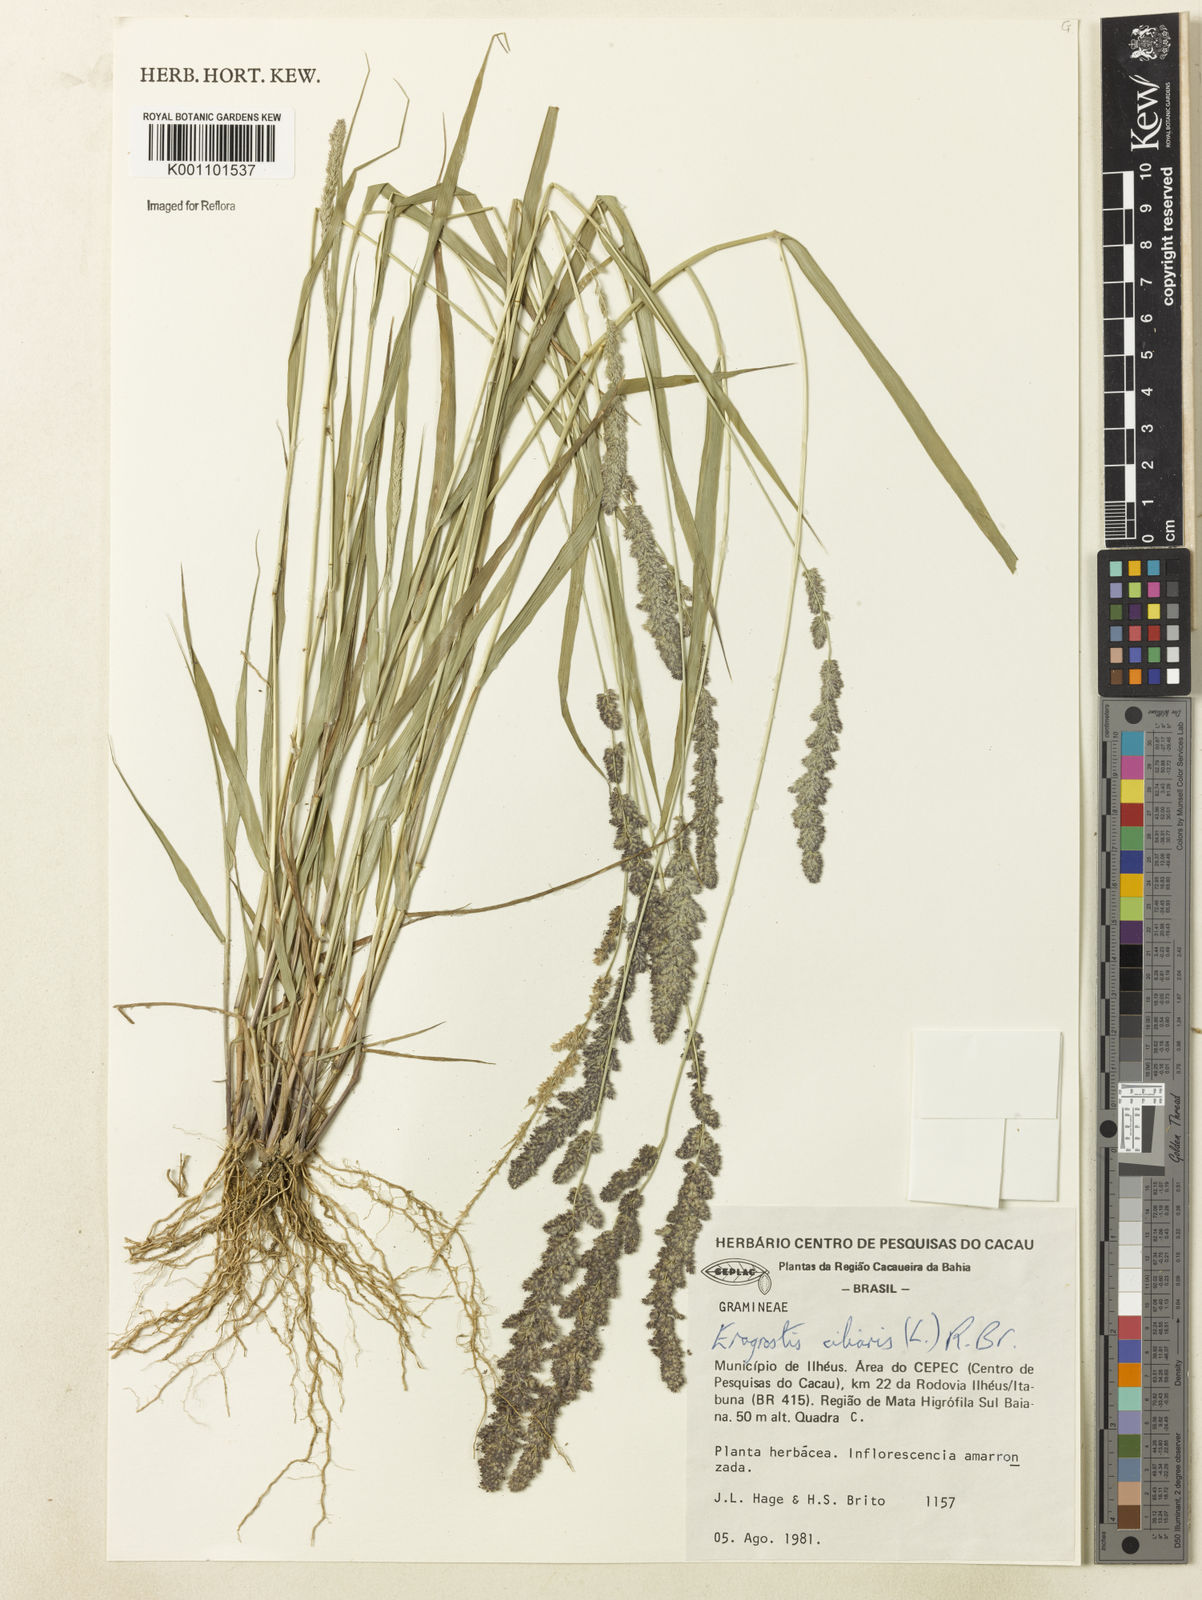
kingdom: Plantae
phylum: Tracheophyta
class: Liliopsida
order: Poales
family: Poaceae
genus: Eragrostis
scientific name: Eragrostis ciliaris
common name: Gophertail lovegrass
